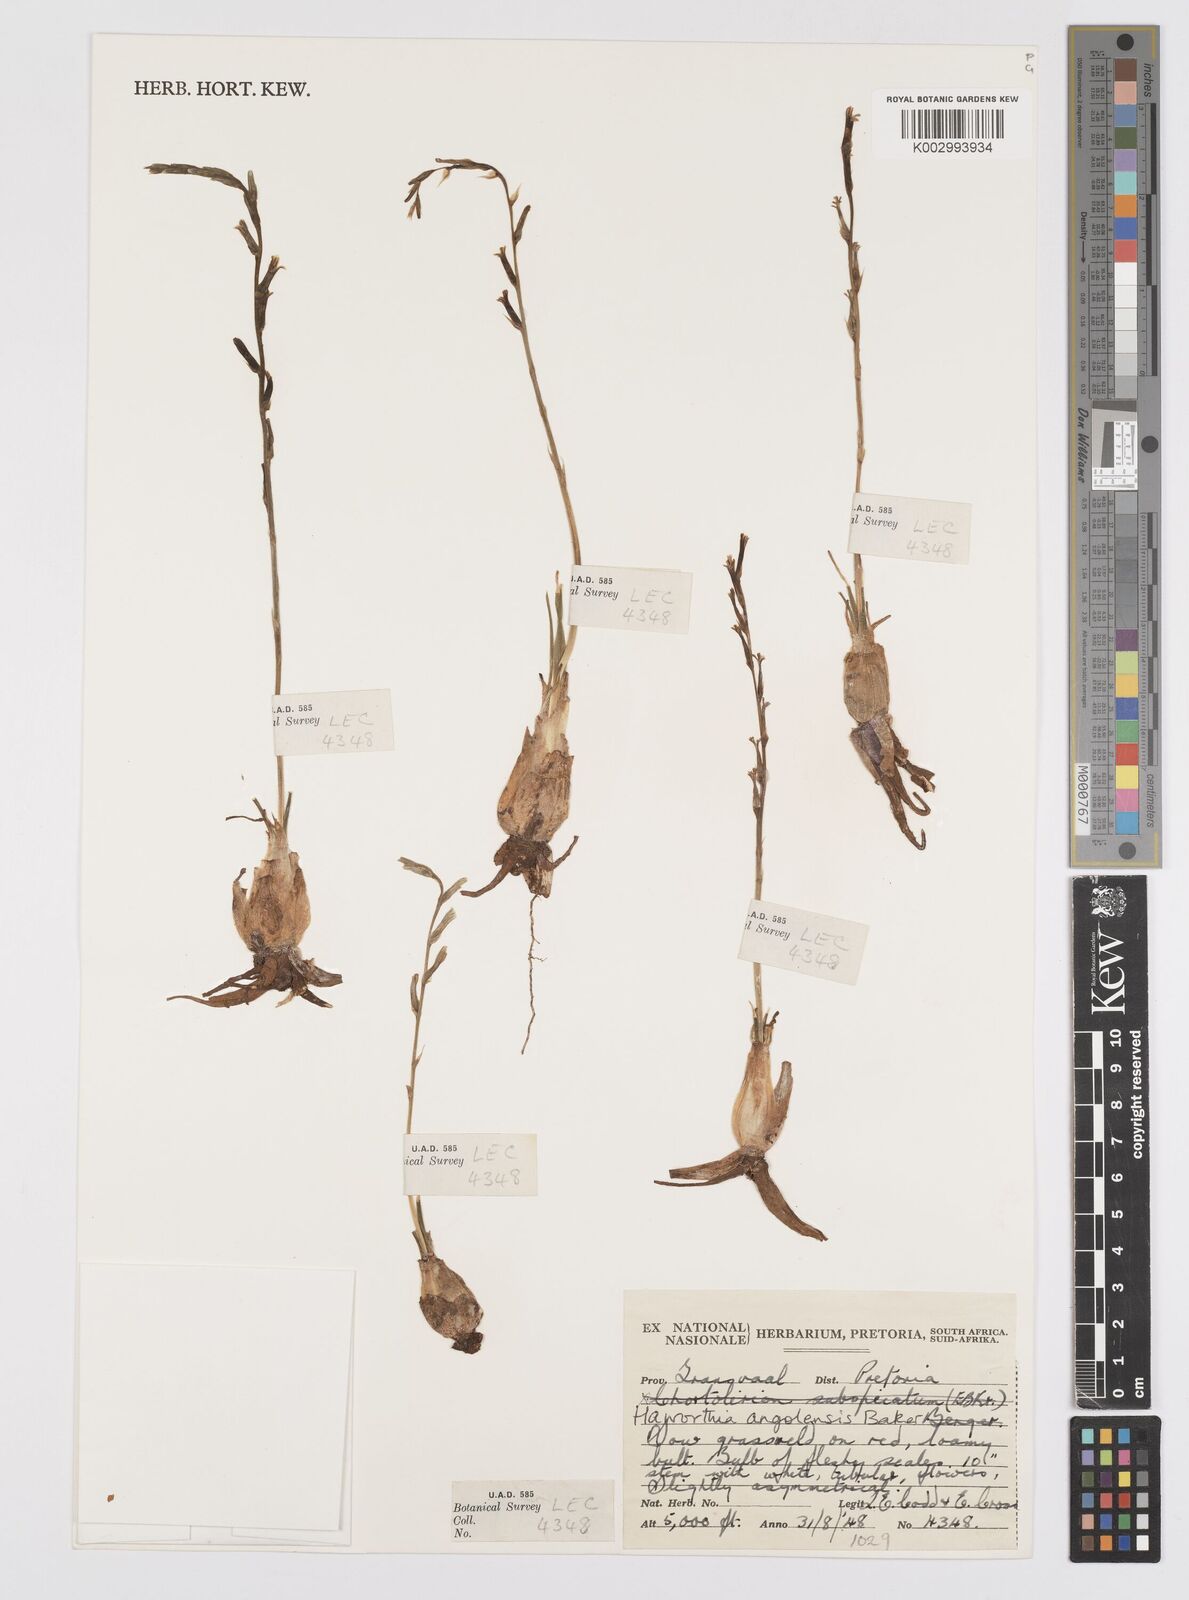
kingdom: Plantae
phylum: Tracheophyta
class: Liliopsida
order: Asparagales
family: Asphodelaceae
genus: Aloe
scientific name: Aloe welwitschii
